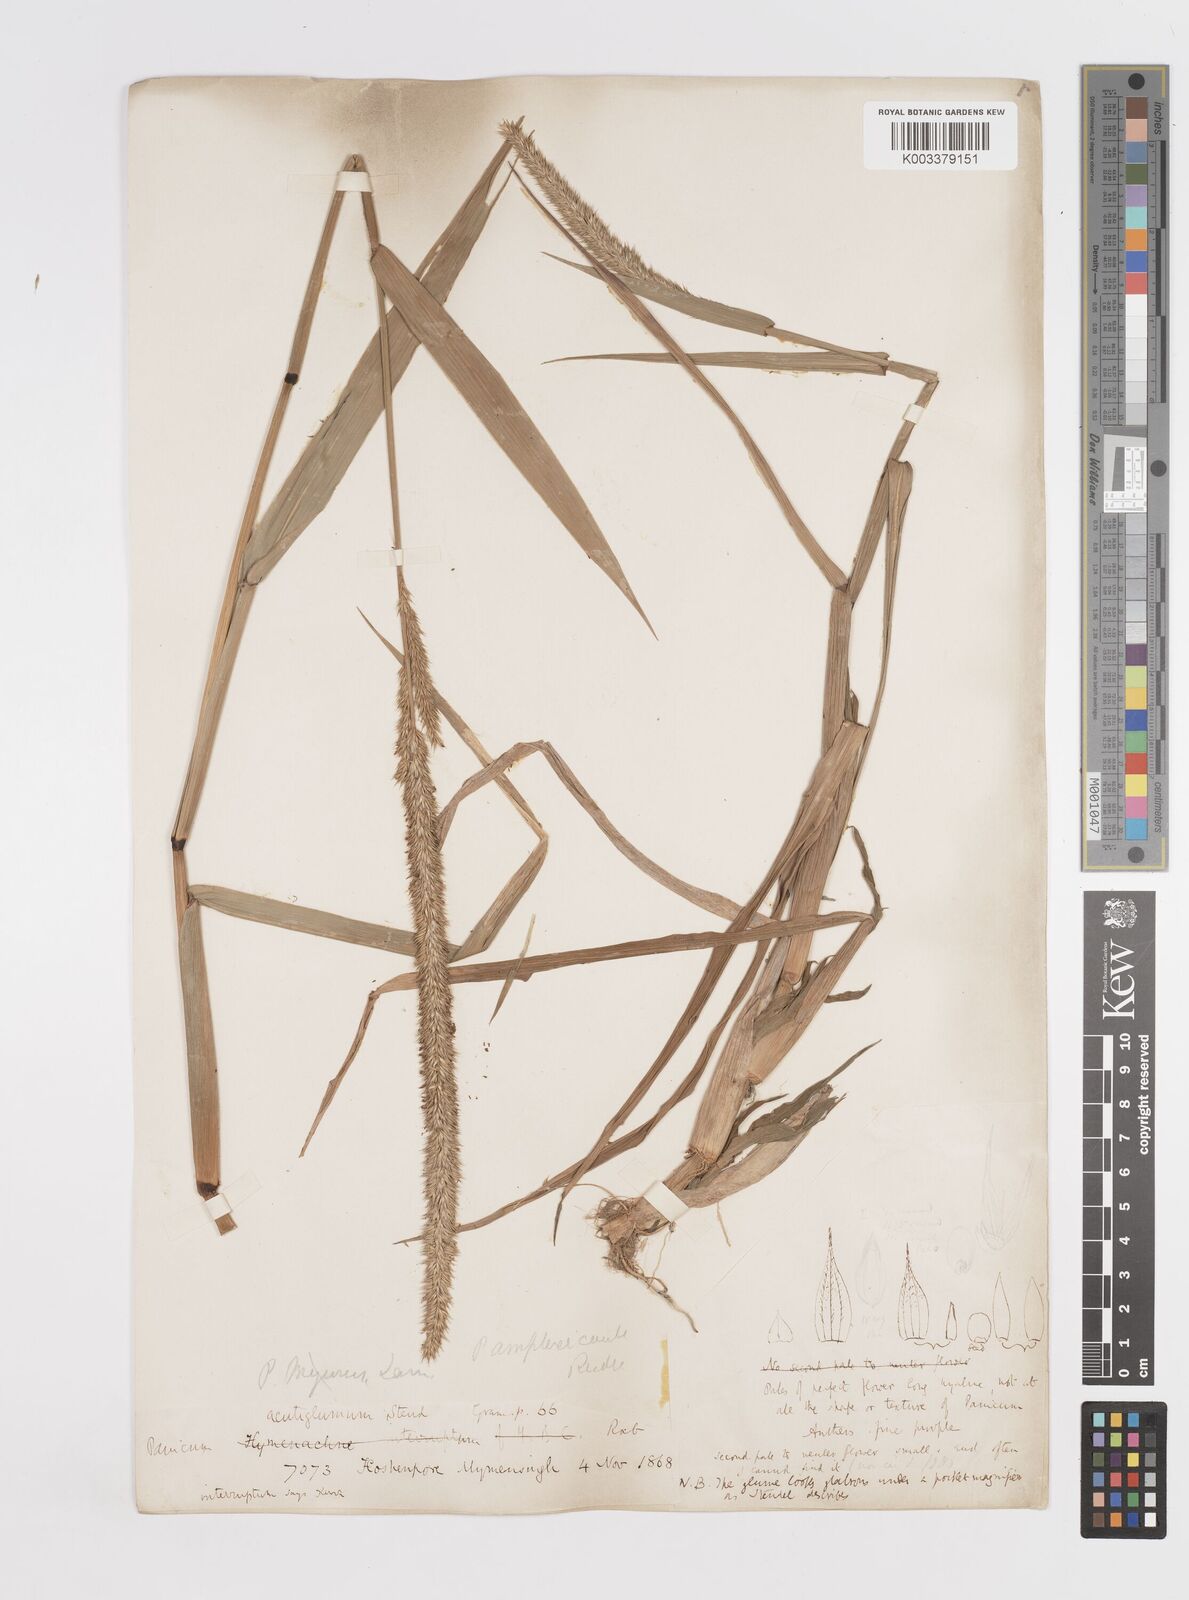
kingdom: Plantae
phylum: Tracheophyta
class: Liliopsida
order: Poales
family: Poaceae
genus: Hymenachne
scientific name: Hymenachne amplexicaulis
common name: Olive hymenachne
